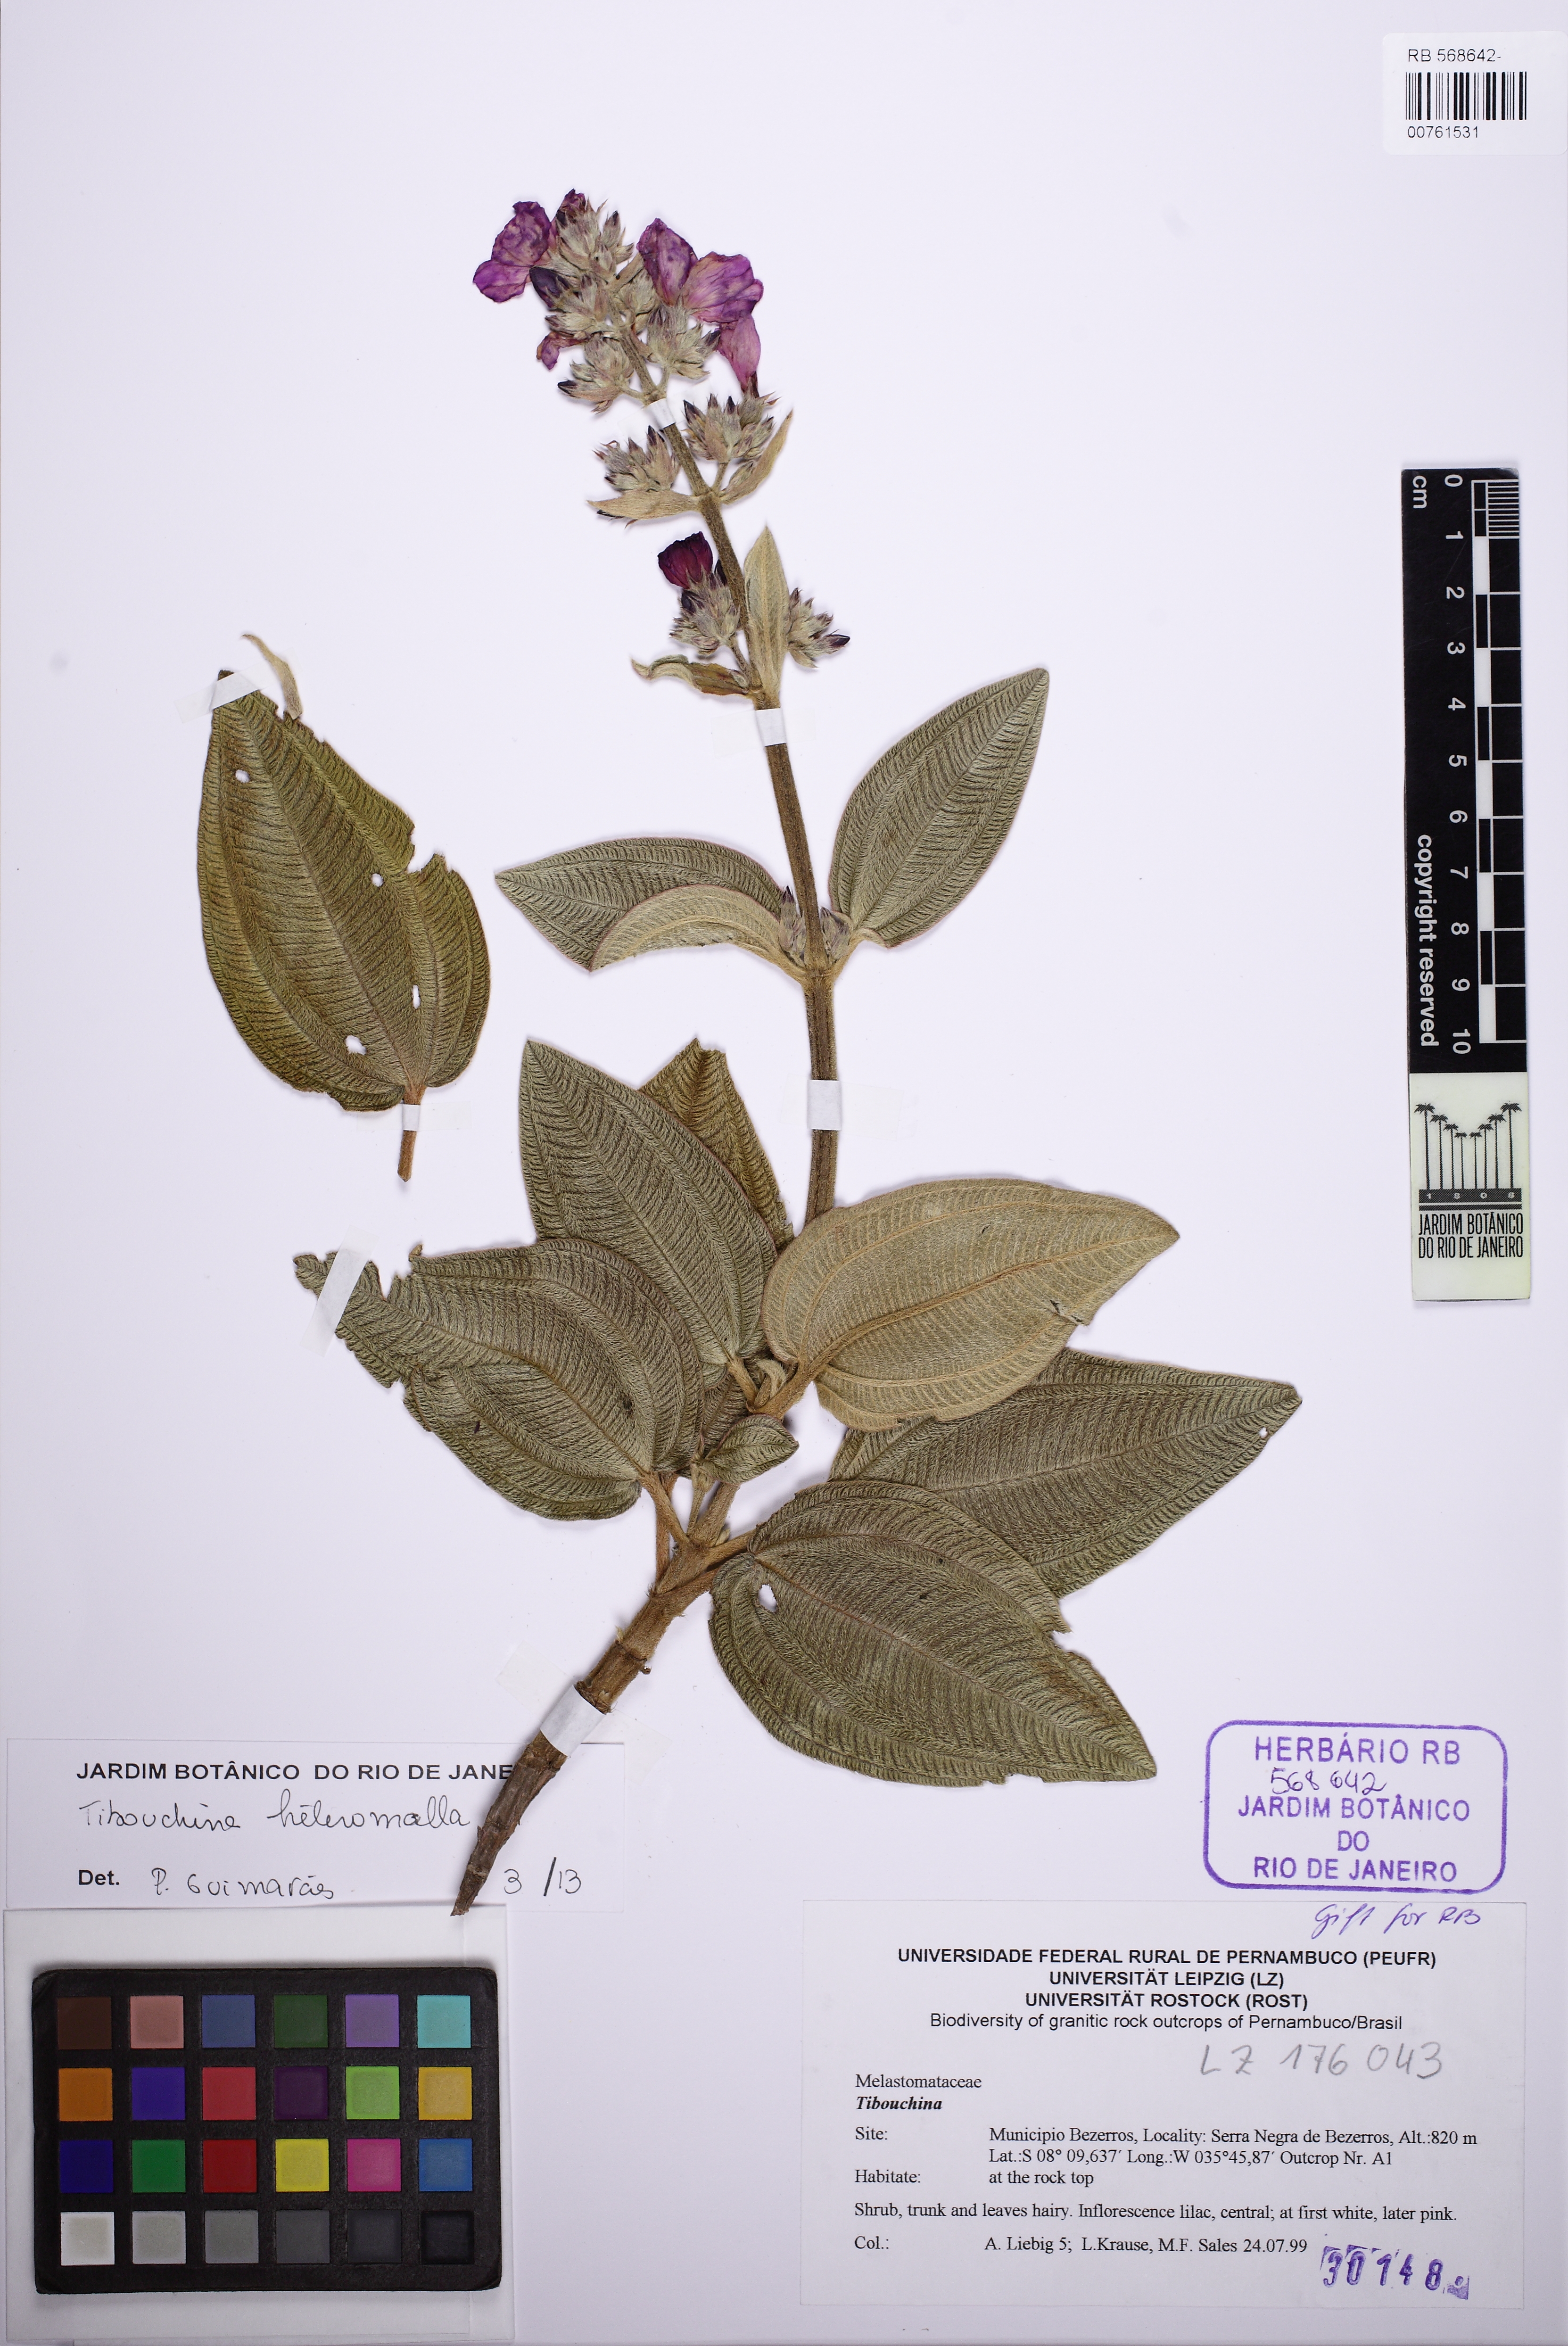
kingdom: Plantae
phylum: Tracheophyta
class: Magnoliopsida
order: Myrtales
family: Melastomataceae
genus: Pleroma
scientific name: Pleroma heteromallum
